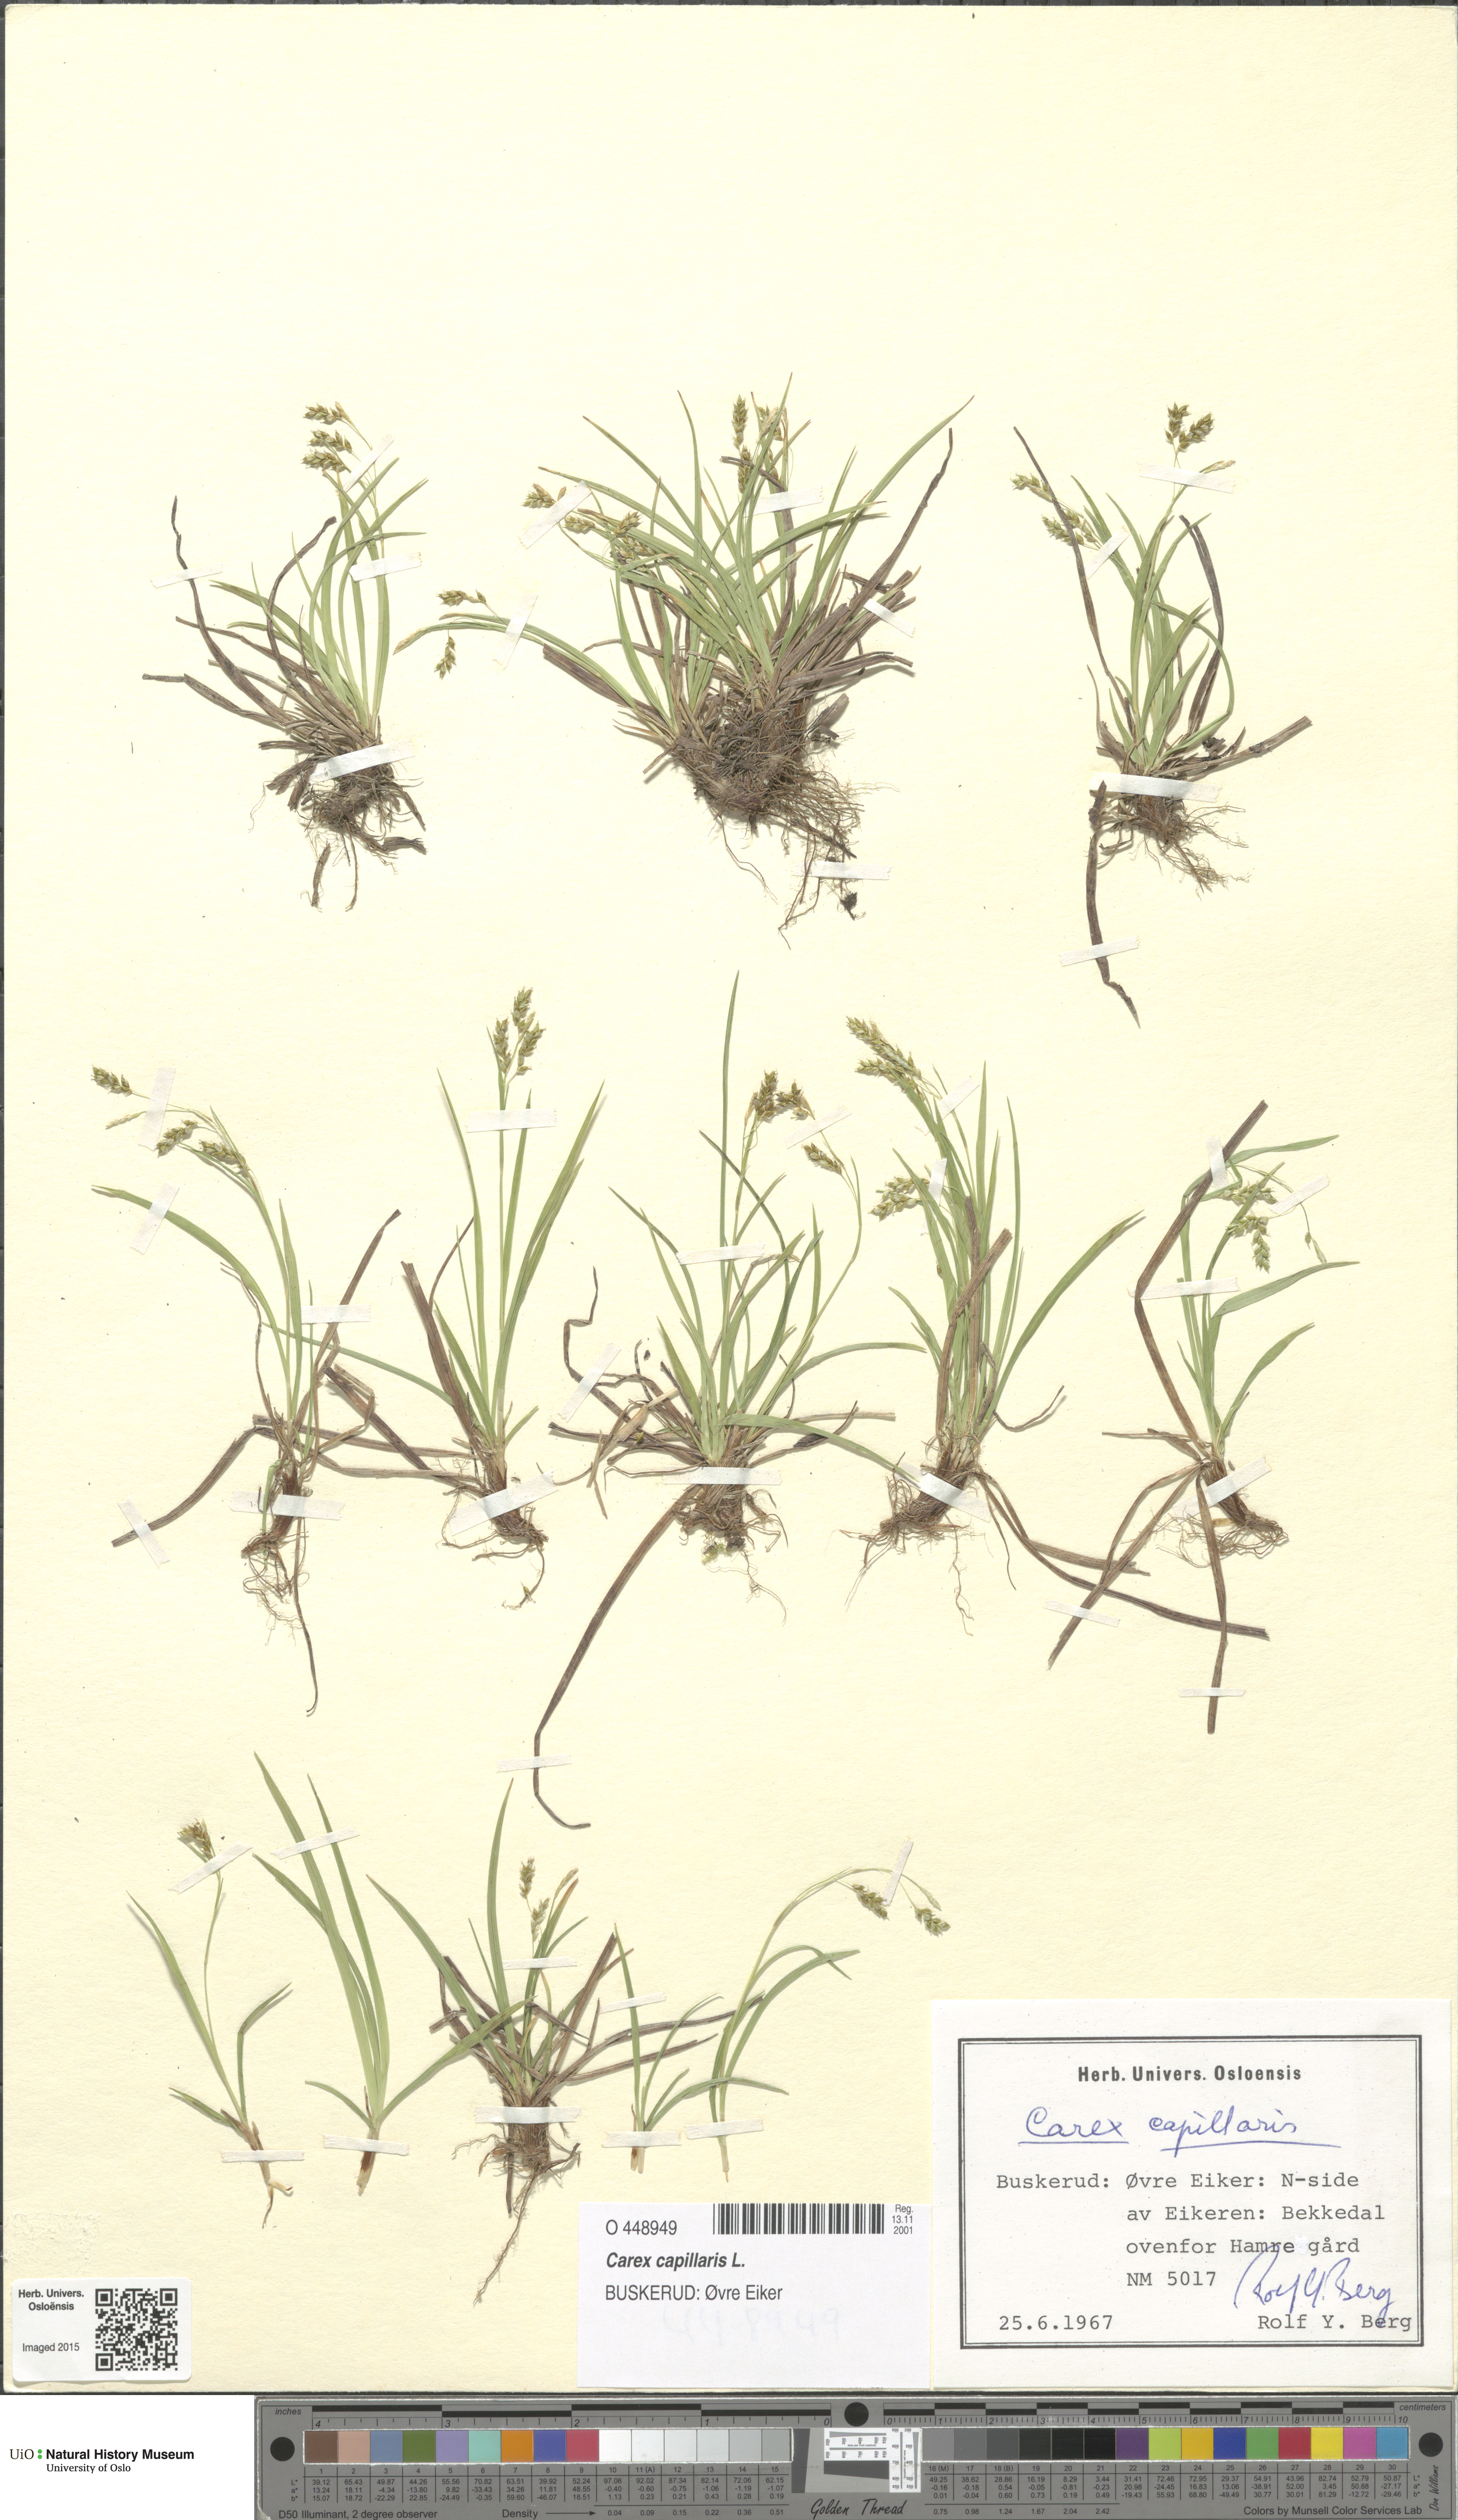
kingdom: Plantae
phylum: Tracheophyta
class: Liliopsida
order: Poales
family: Cyperaceae
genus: Carex
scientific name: Carex capillaris
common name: Hair sedge
